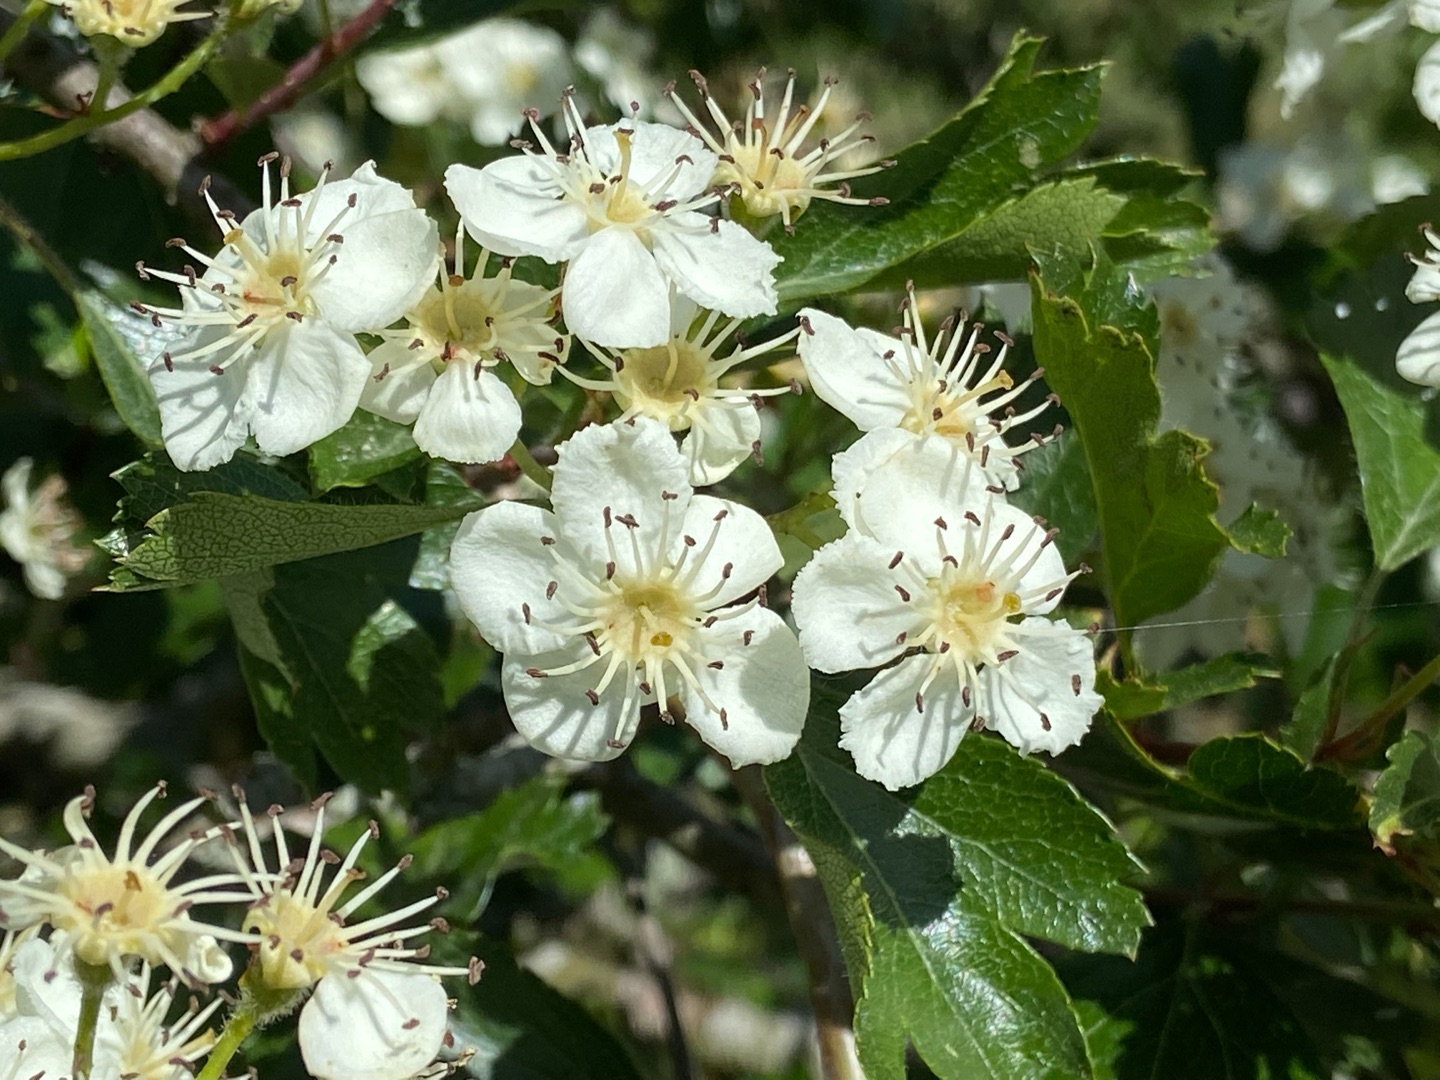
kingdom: Plantae
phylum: Tracheophyta
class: Magnoliopsida
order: Rosales
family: Rosaceae
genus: Crataegus
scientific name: Crataegus media
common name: Almindelig hvidtjørn × engriflet hvidtjørn
